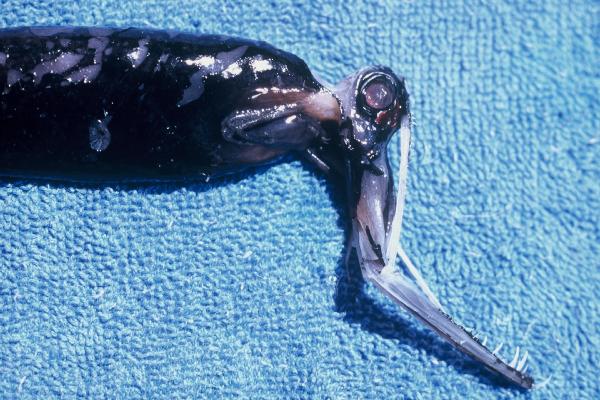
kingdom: Animalia
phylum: Chordata
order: Stomiiformes
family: Stomiidae
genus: Malacosteus
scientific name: Malacosteus niger
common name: Black hinged-head
